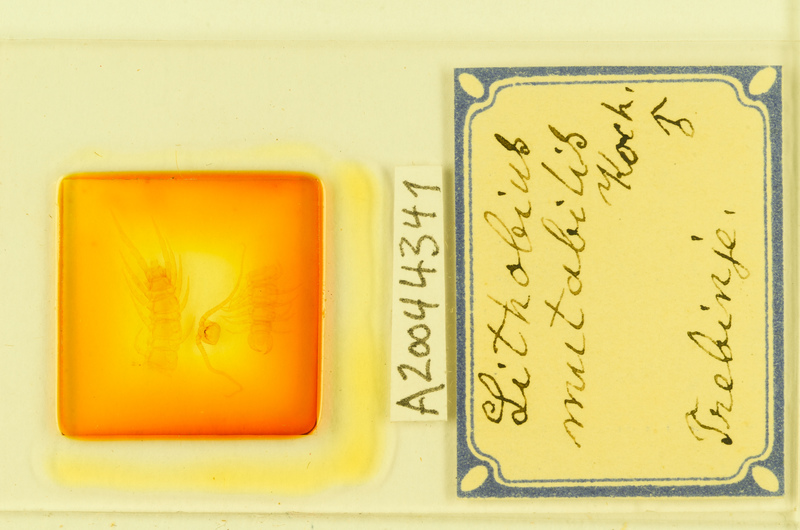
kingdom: Animalia
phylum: Arthropoda
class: Chilopoda
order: Lithobiomorpha
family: Lithobiidae
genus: Lithobius
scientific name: Lithobius mutabilis
